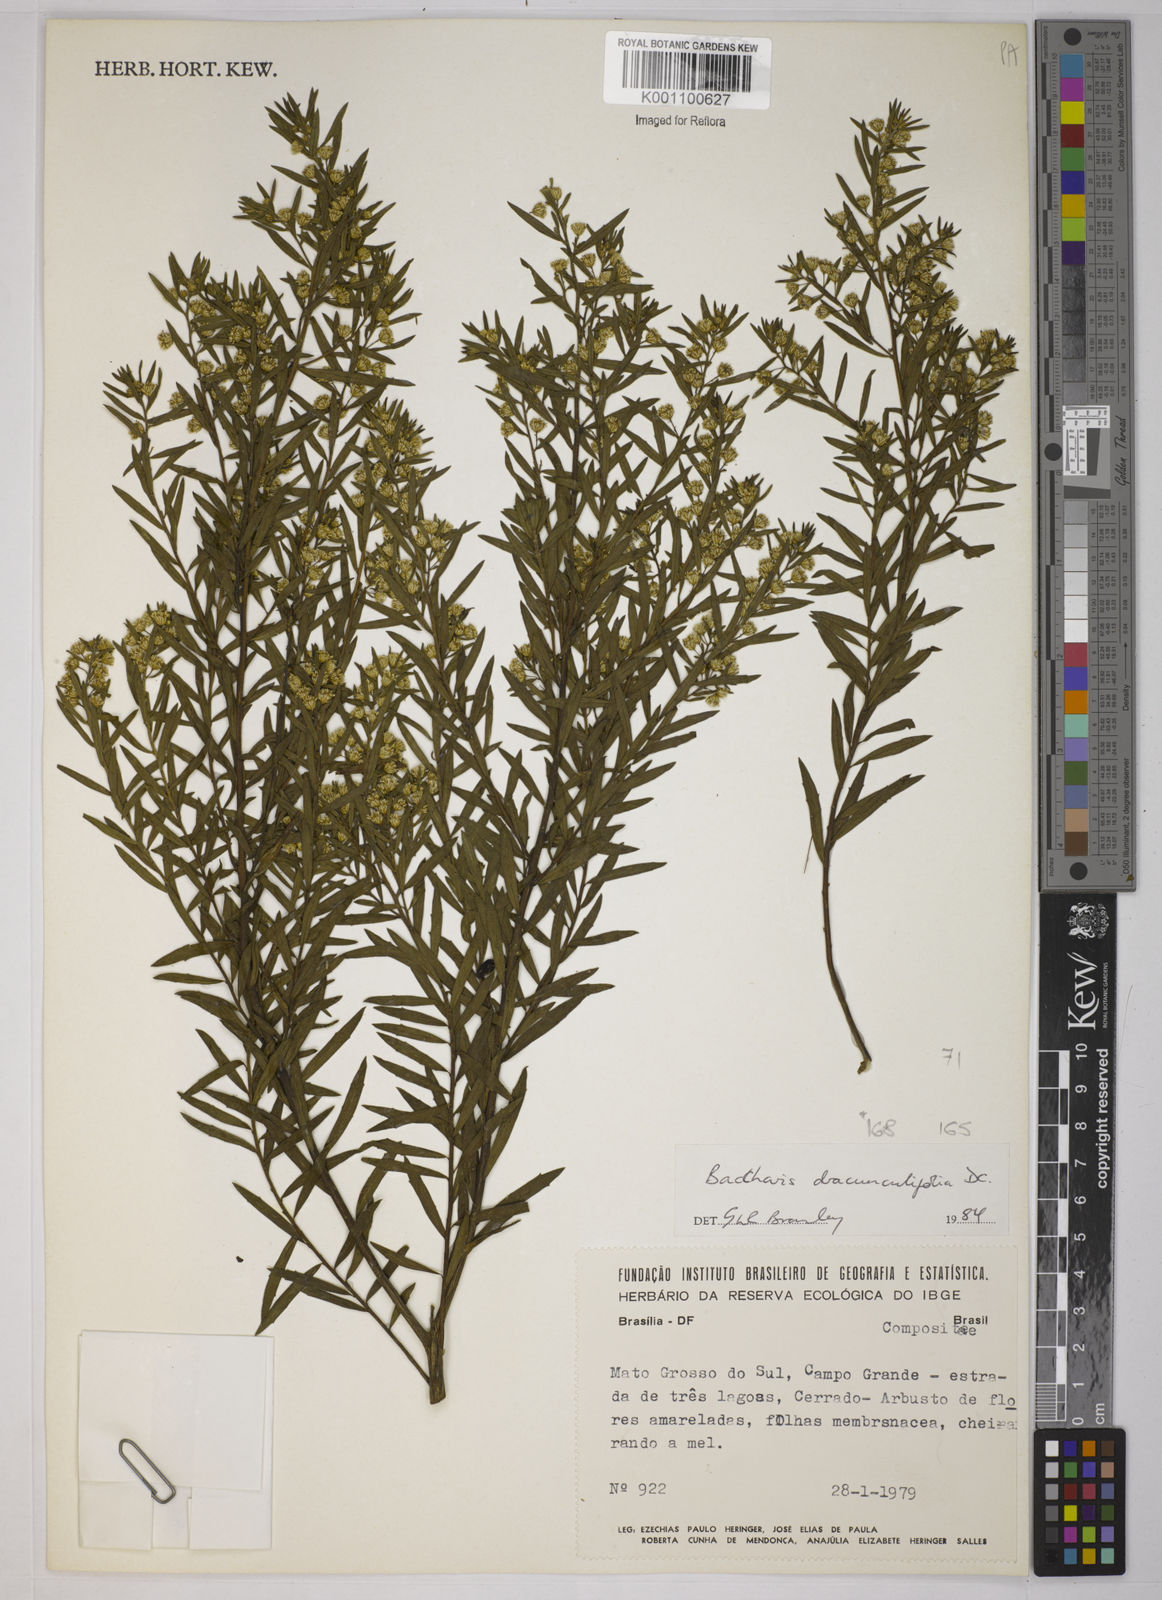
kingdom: Plantae
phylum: Tracheophyta
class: Magnoliopsida
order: Asterales
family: Asteraceae
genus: Baccharis
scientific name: Baccharis dracunculifolia
